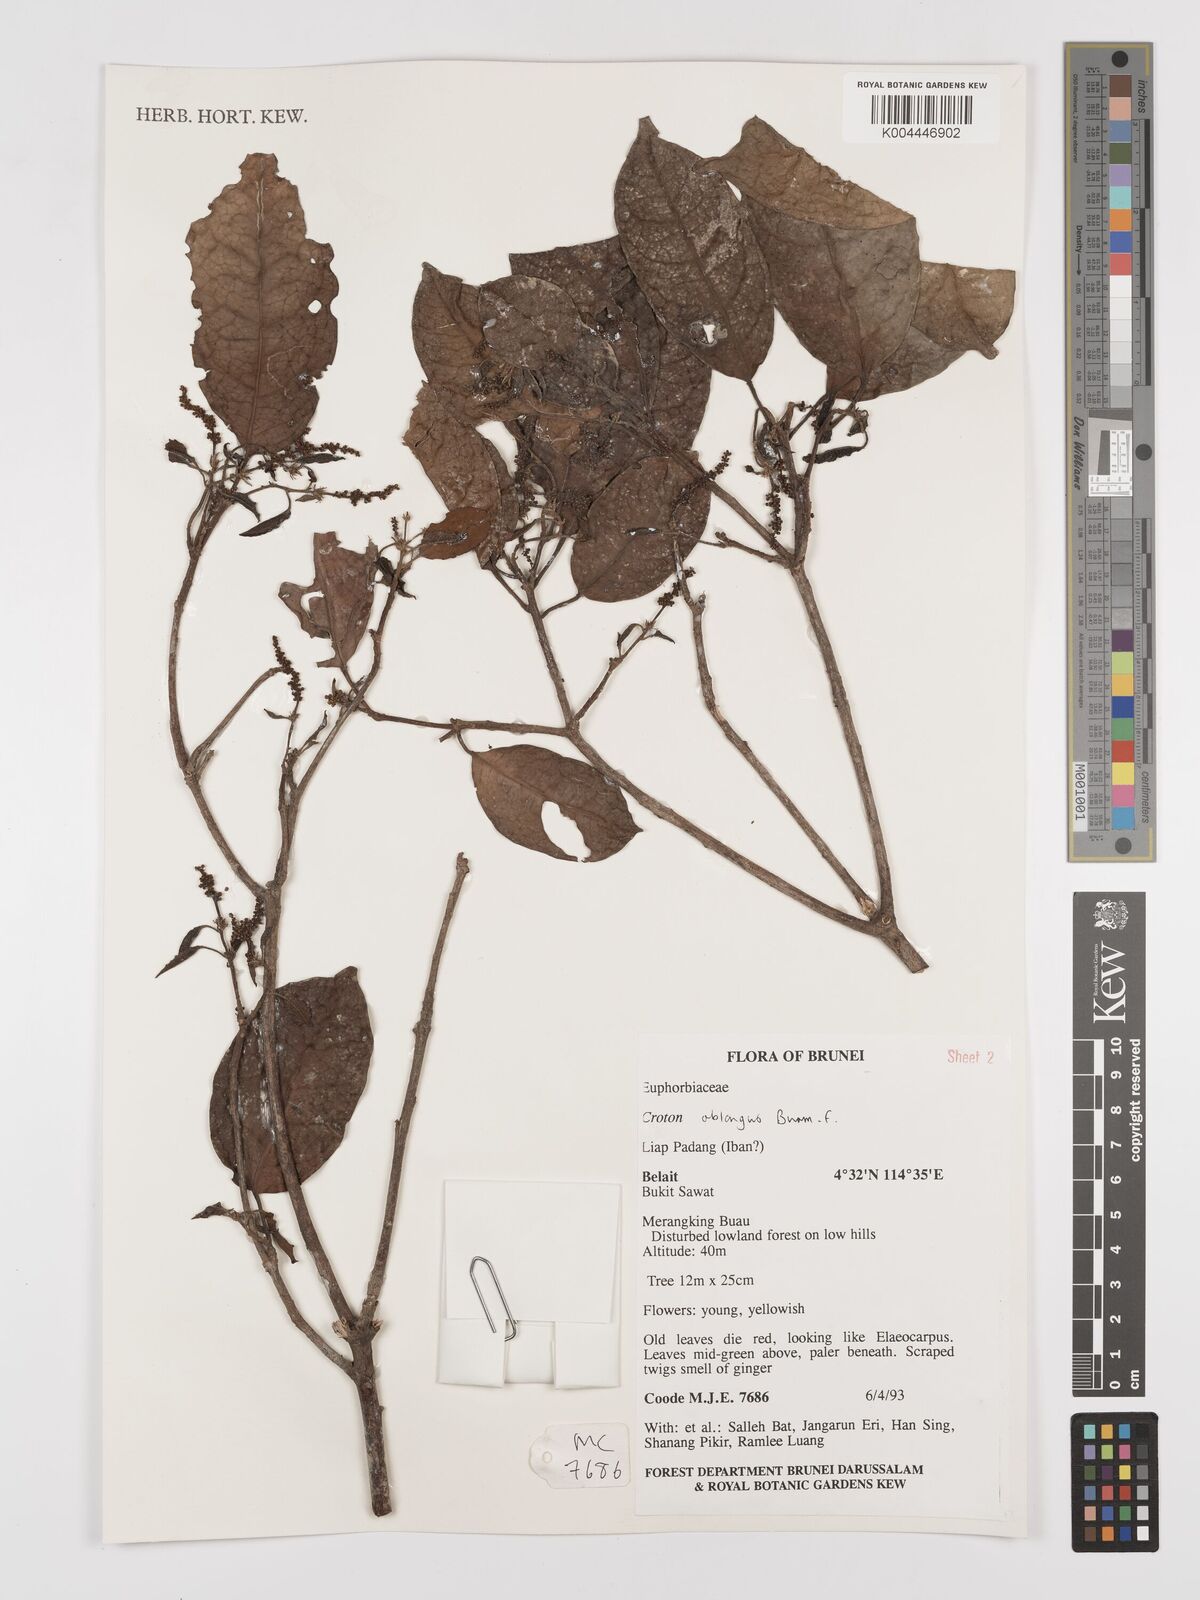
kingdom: Plantae
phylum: Tracheophyta
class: Magnoliopsida
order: Malpighiales
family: Euphorbiaceae
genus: Croton
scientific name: Croton oblongus
